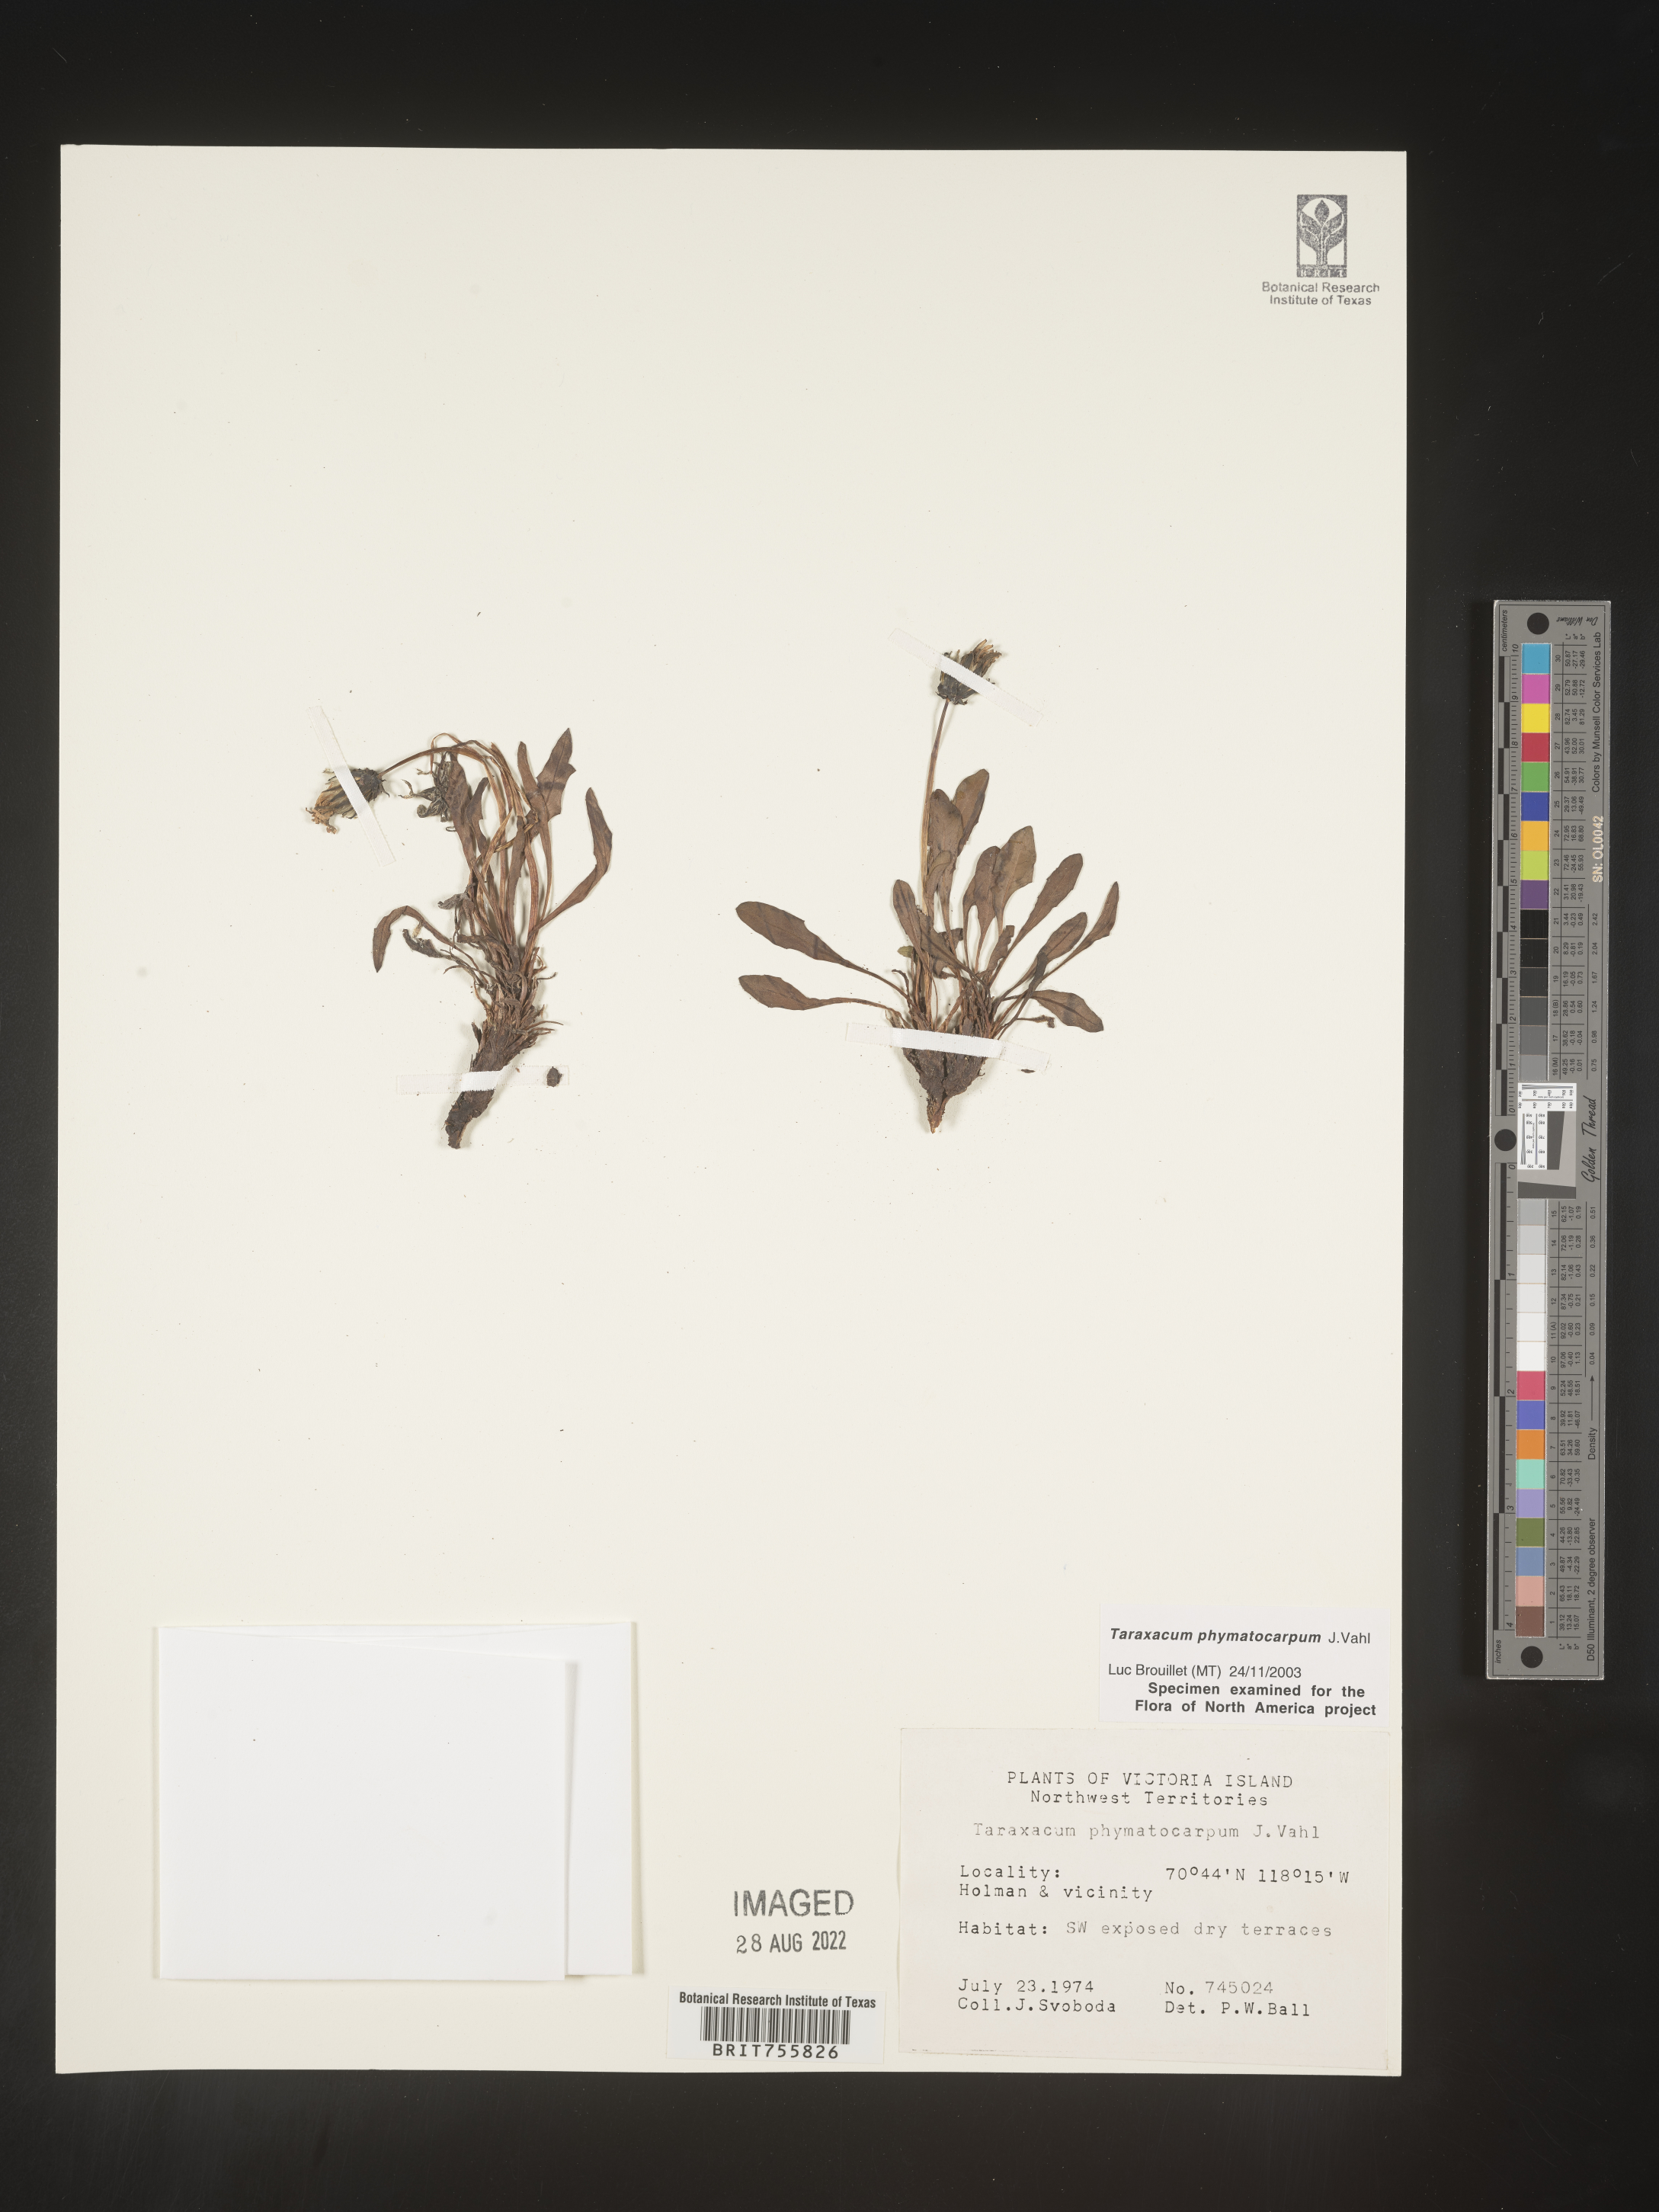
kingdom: Plantae
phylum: Tracheophyta
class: Magnoliopsida
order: Asterales
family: Asteraceae
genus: Taraxacum
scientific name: Taraxacum
